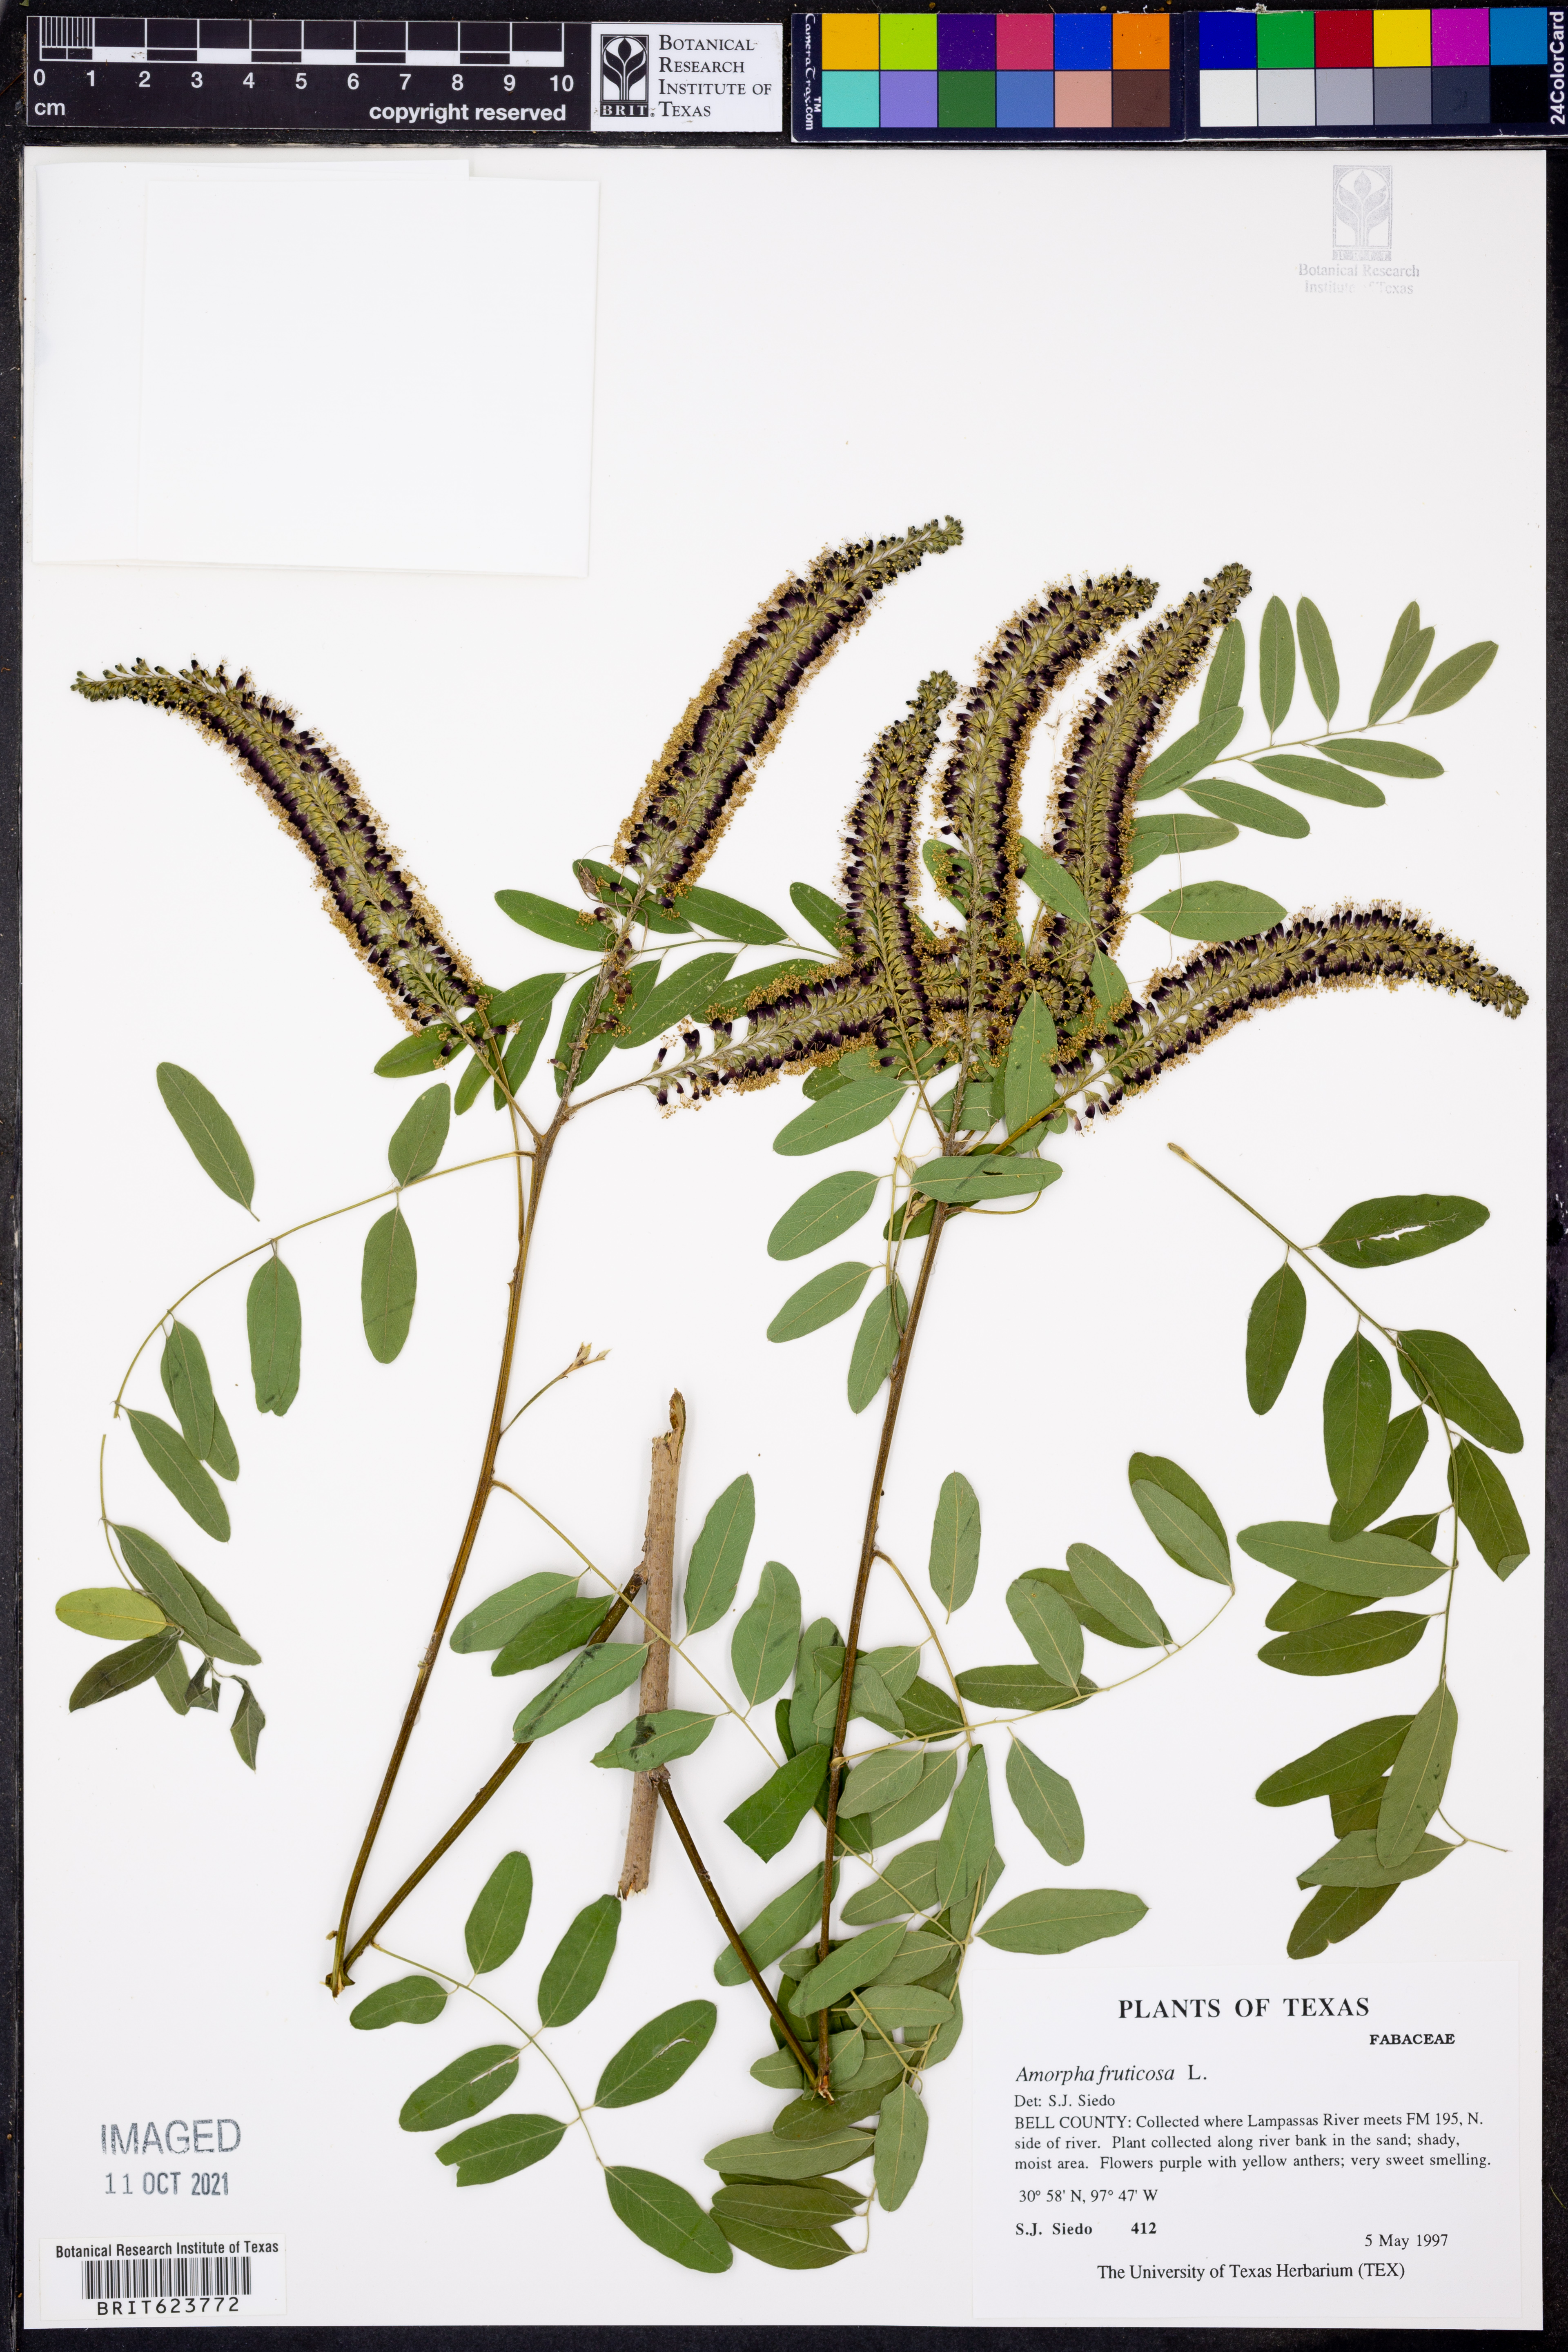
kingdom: Plantae
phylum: Tracheophyta
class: Magnoliopsida
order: Fabales
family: Fabaceae
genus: Amorpha
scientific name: Amorpha fruticosa
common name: False indigo
